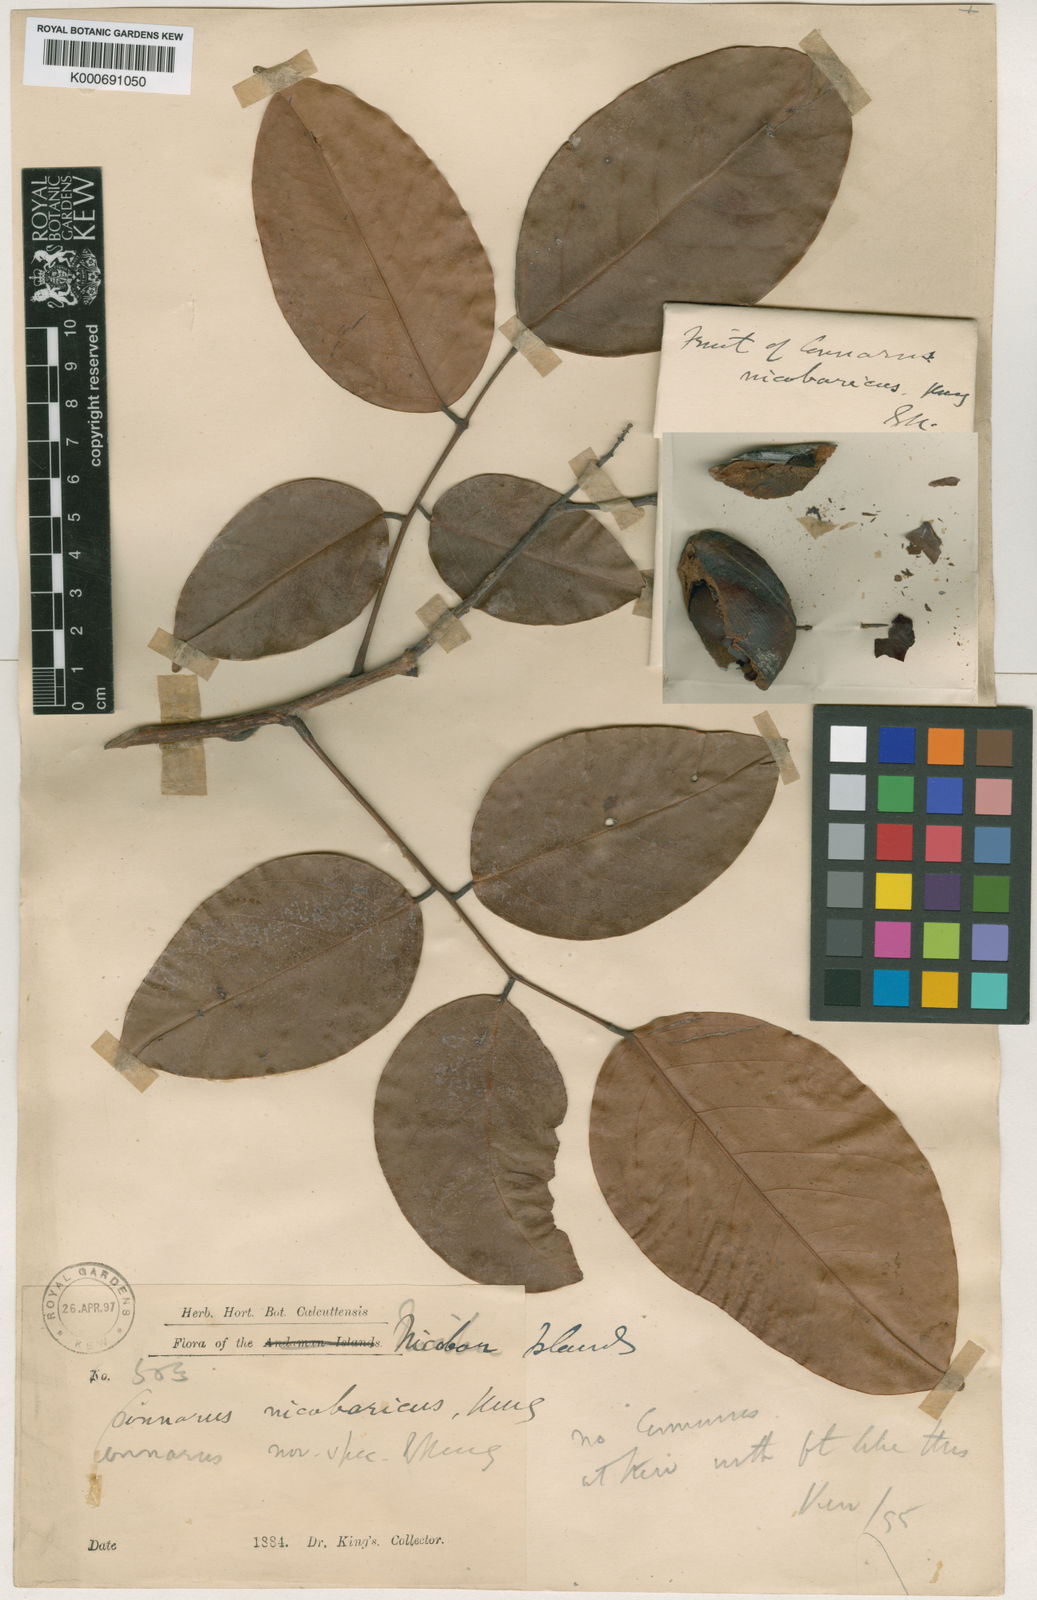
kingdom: Plantae
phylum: Tracheophyta
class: Magnoliopsida
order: Oxalidales
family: Connaraceae
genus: Connarus
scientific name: Connarus nicobaricus
